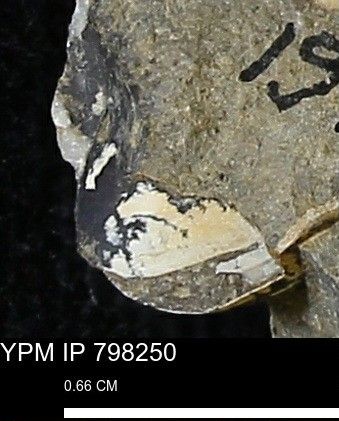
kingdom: Animalia
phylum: Mollusca
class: Bivalvia
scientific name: Bivalvia
